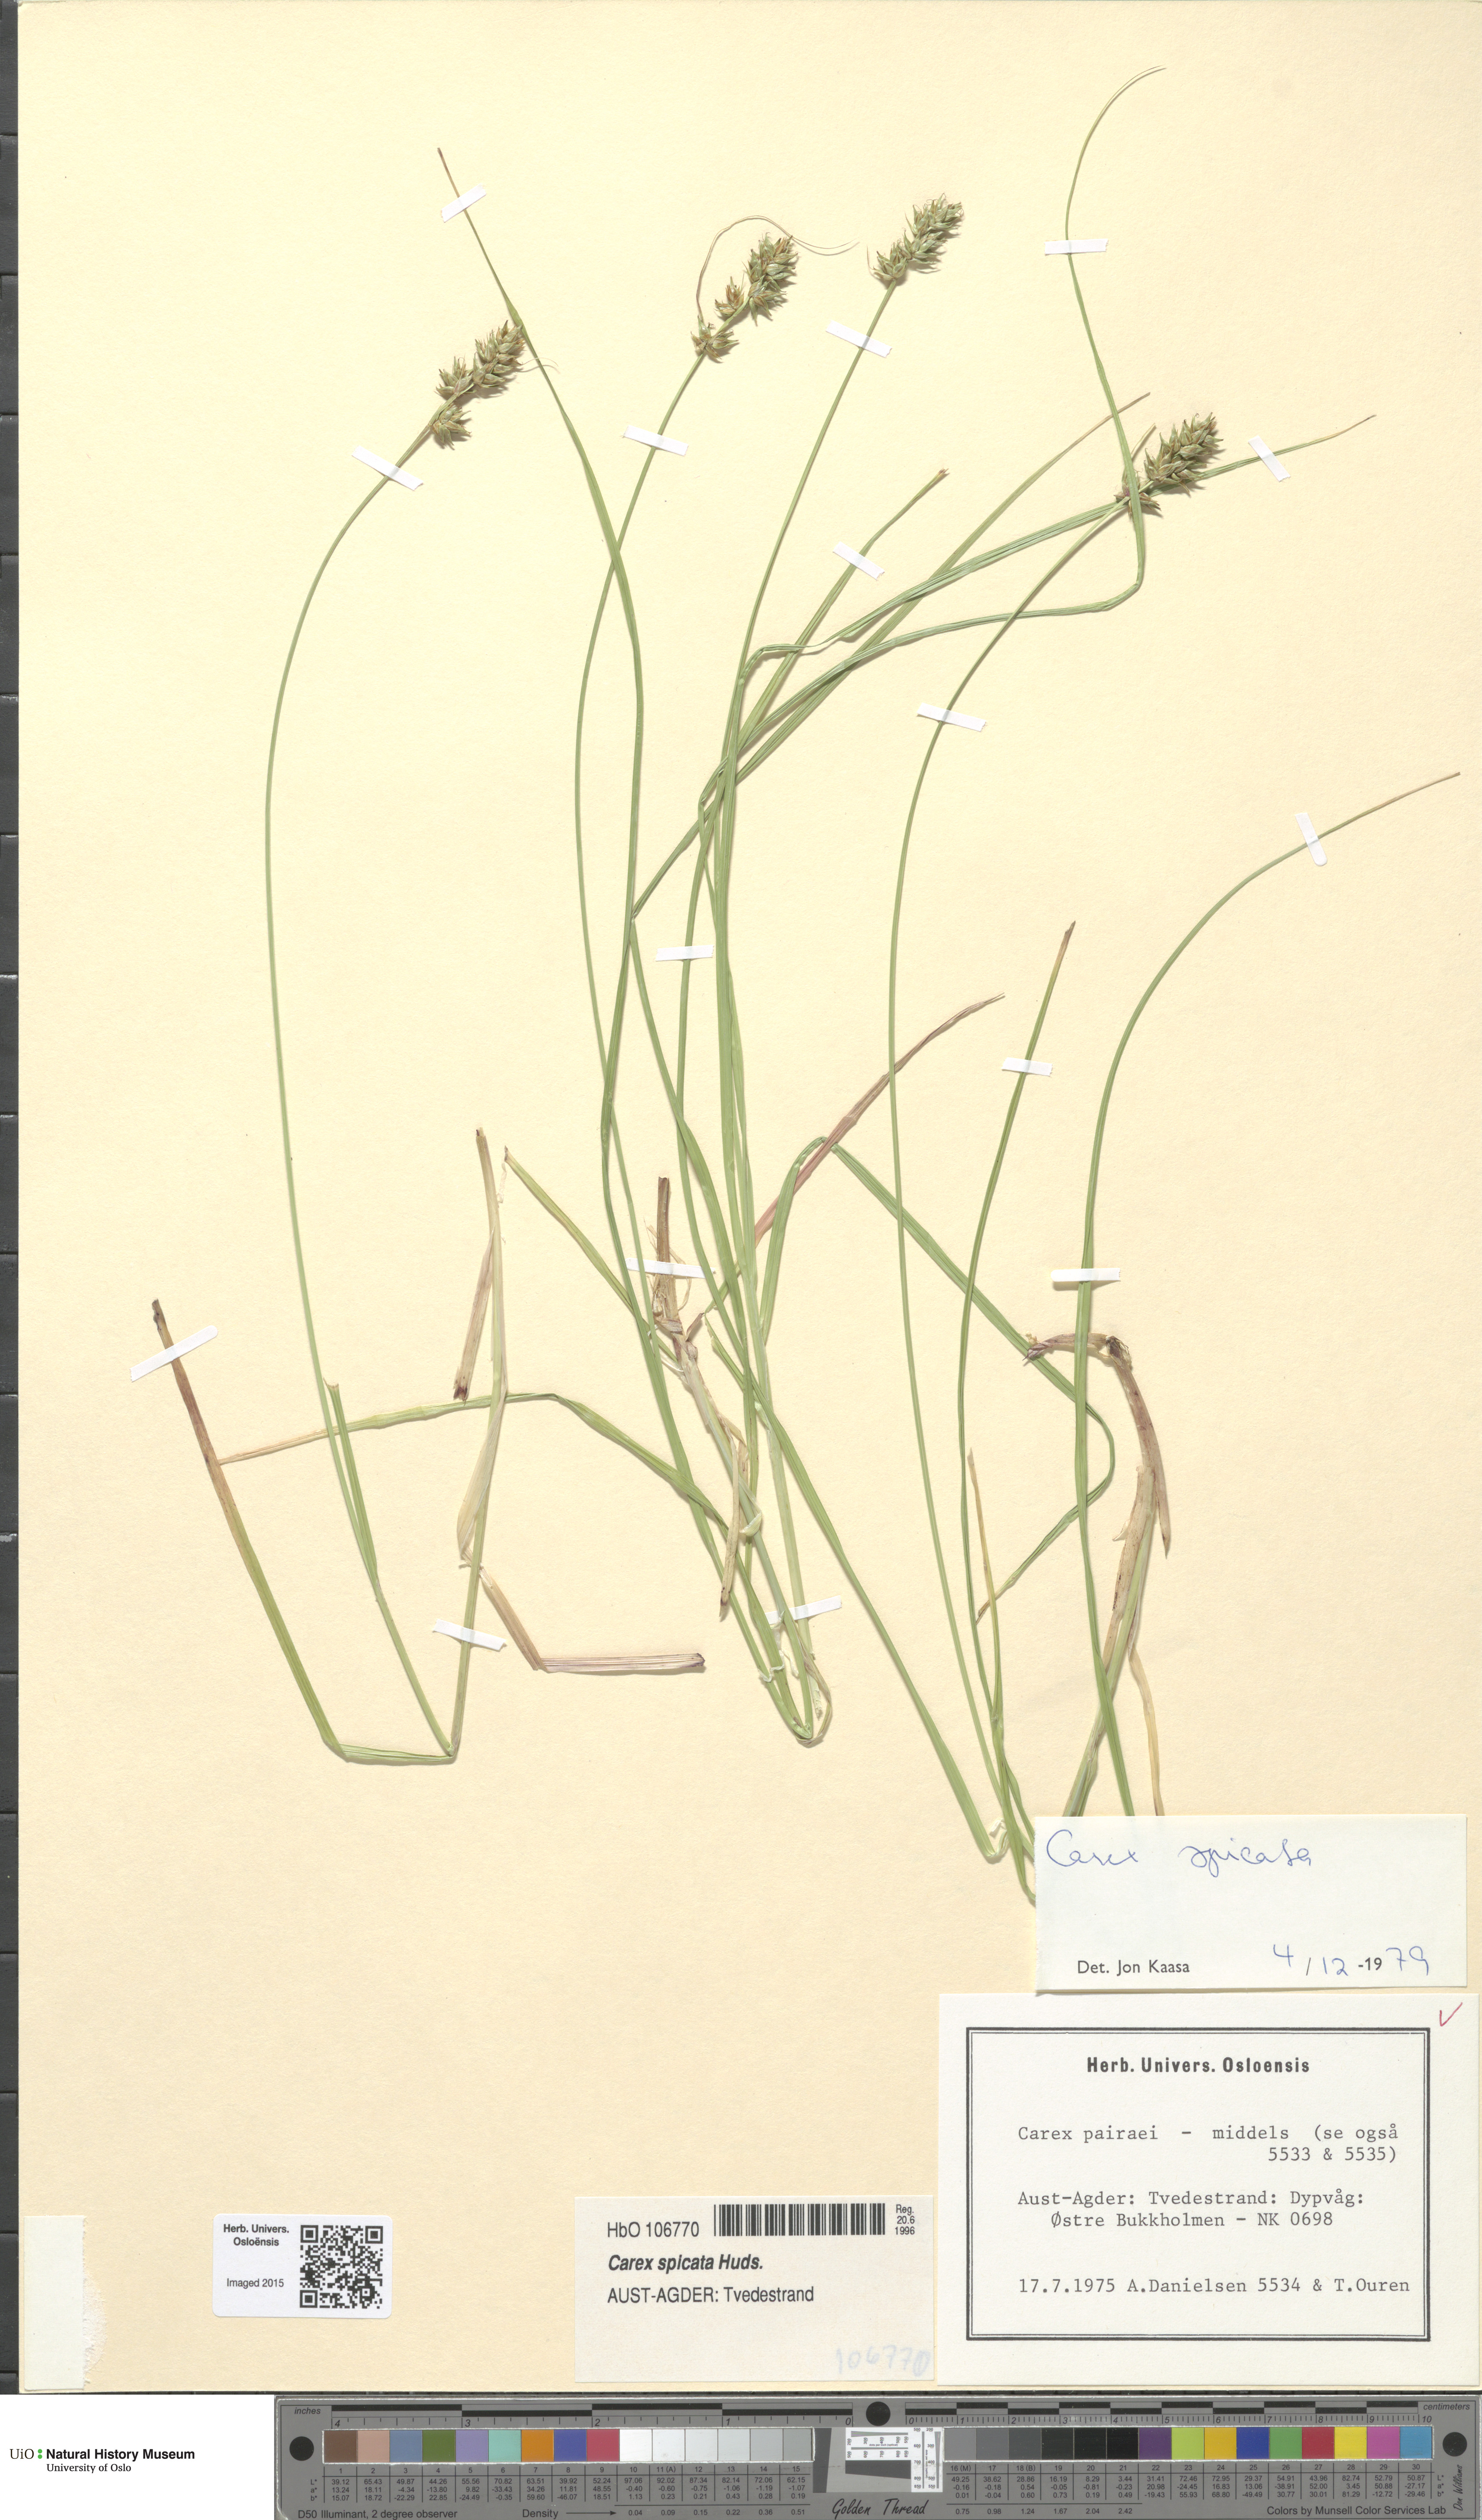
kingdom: Plantae
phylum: Tracheophyta
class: Liliopsida
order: Poales
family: Cyperaceae
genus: Carex
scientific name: Carex spicata
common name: Spiked sedge
